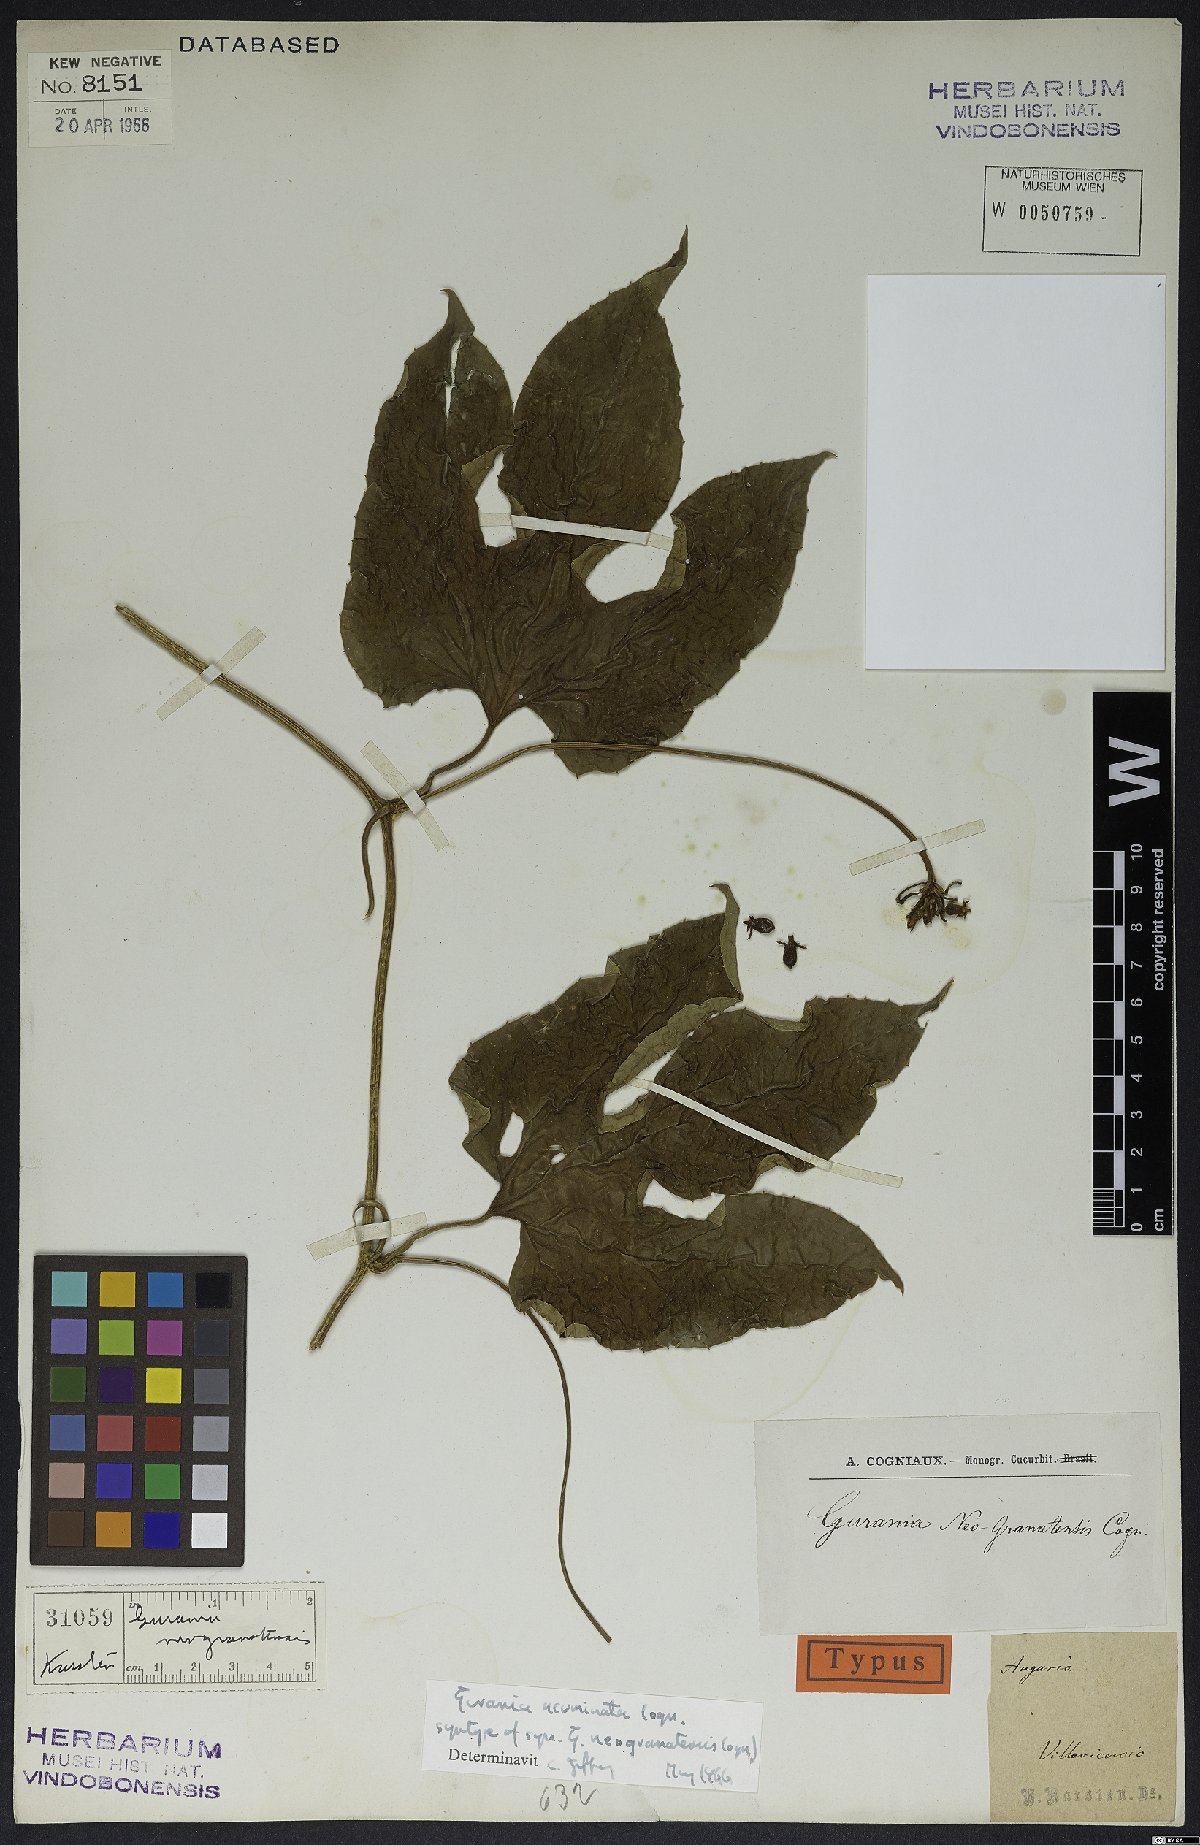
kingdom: Plantae
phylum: Tracheophyta
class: Magnoliopsida
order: Cucurbitales
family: Cucurbitaceae
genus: Gurania
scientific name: Gurania acuminata
